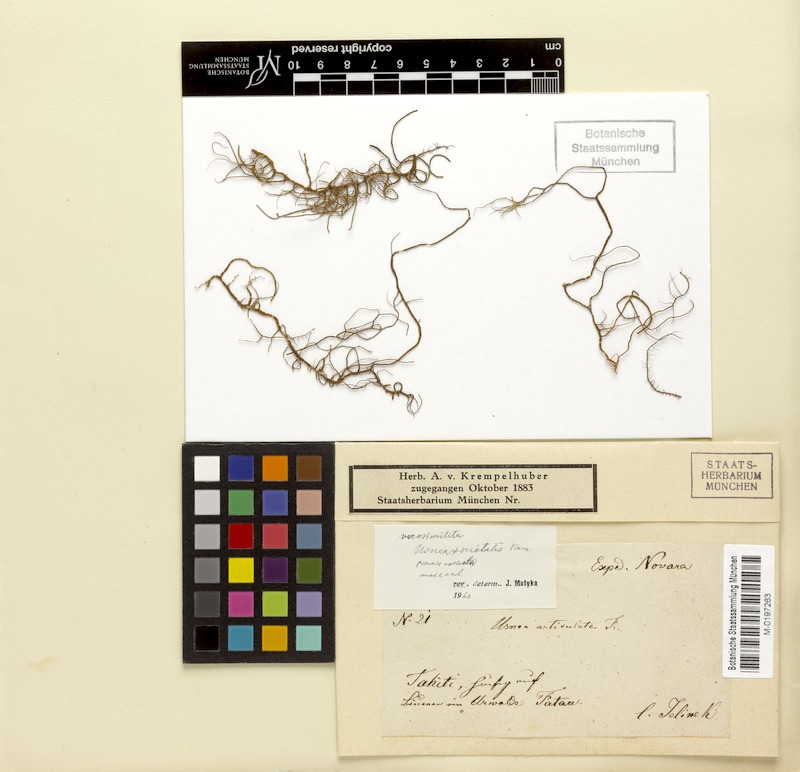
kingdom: Fungi
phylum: Ascomycota
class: Lecanoromycetes
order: Lecanorales
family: Parmeliaceae
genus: Usnea
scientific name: Usnea societatis
